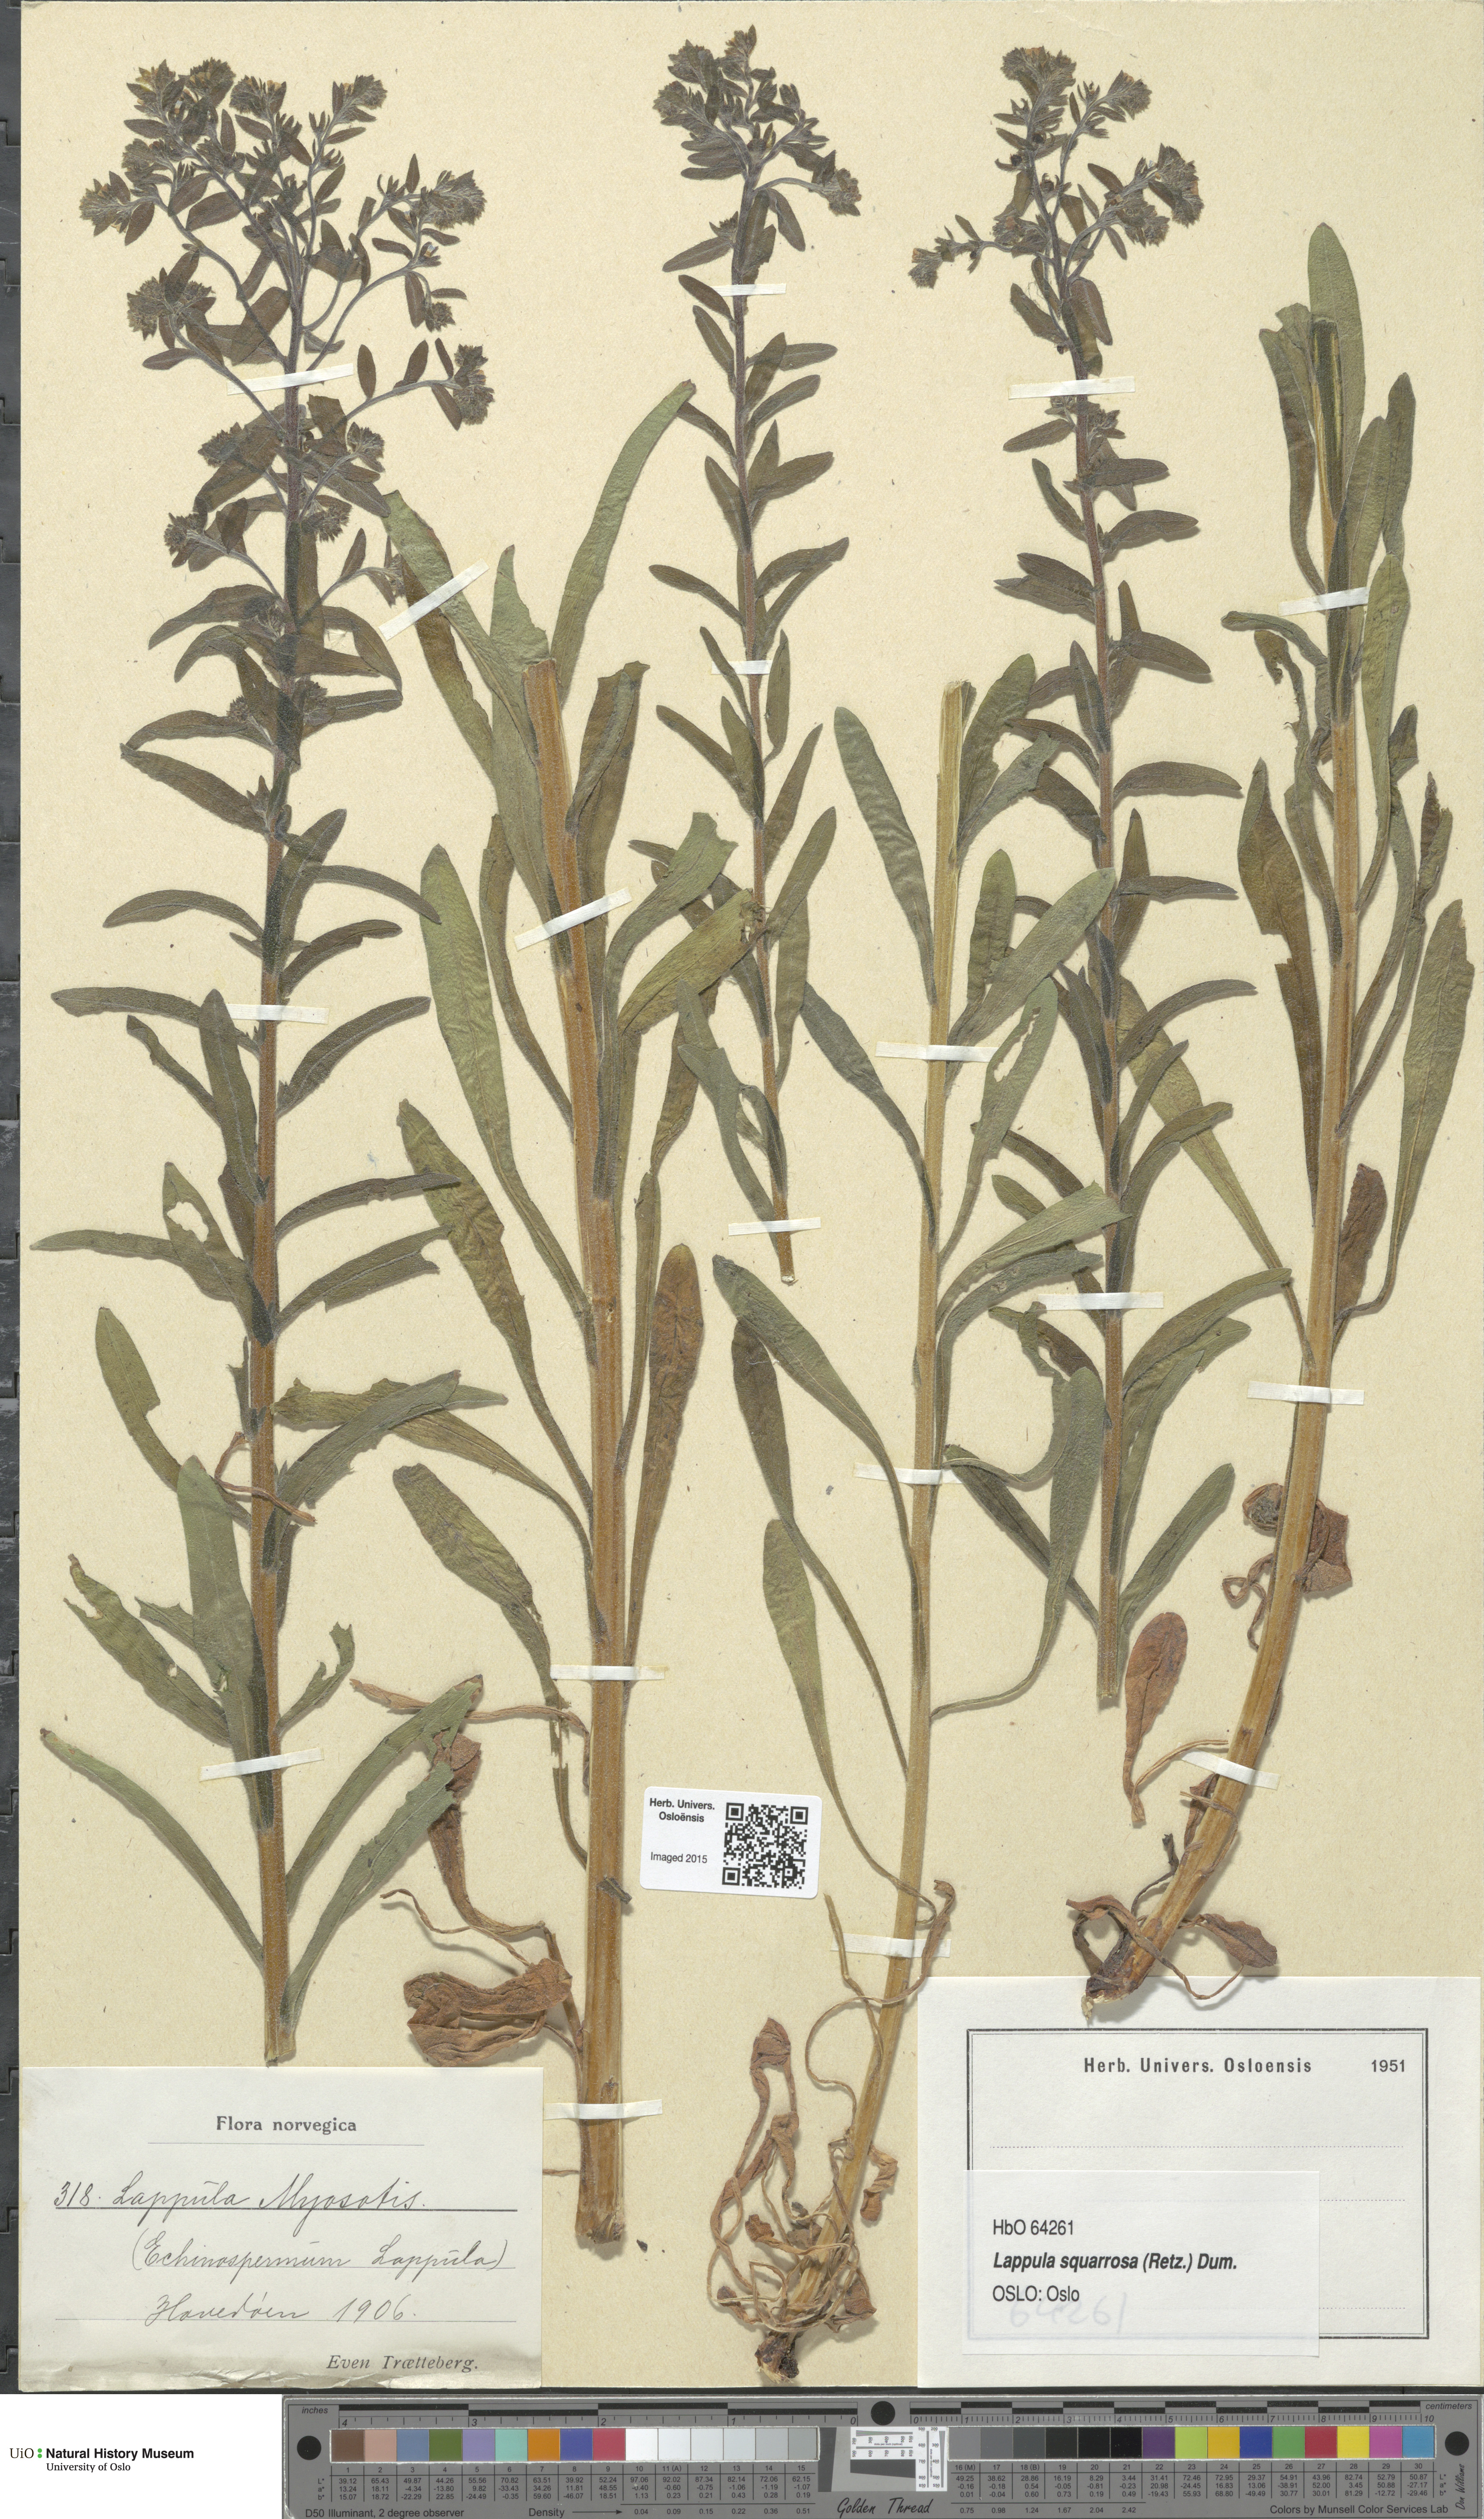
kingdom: Plantae
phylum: Tracheophyta
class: Magnoliopsida
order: Boraginales
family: Boraginaceae
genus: Lappula
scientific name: Lappula squarrosa
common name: European stickseed
